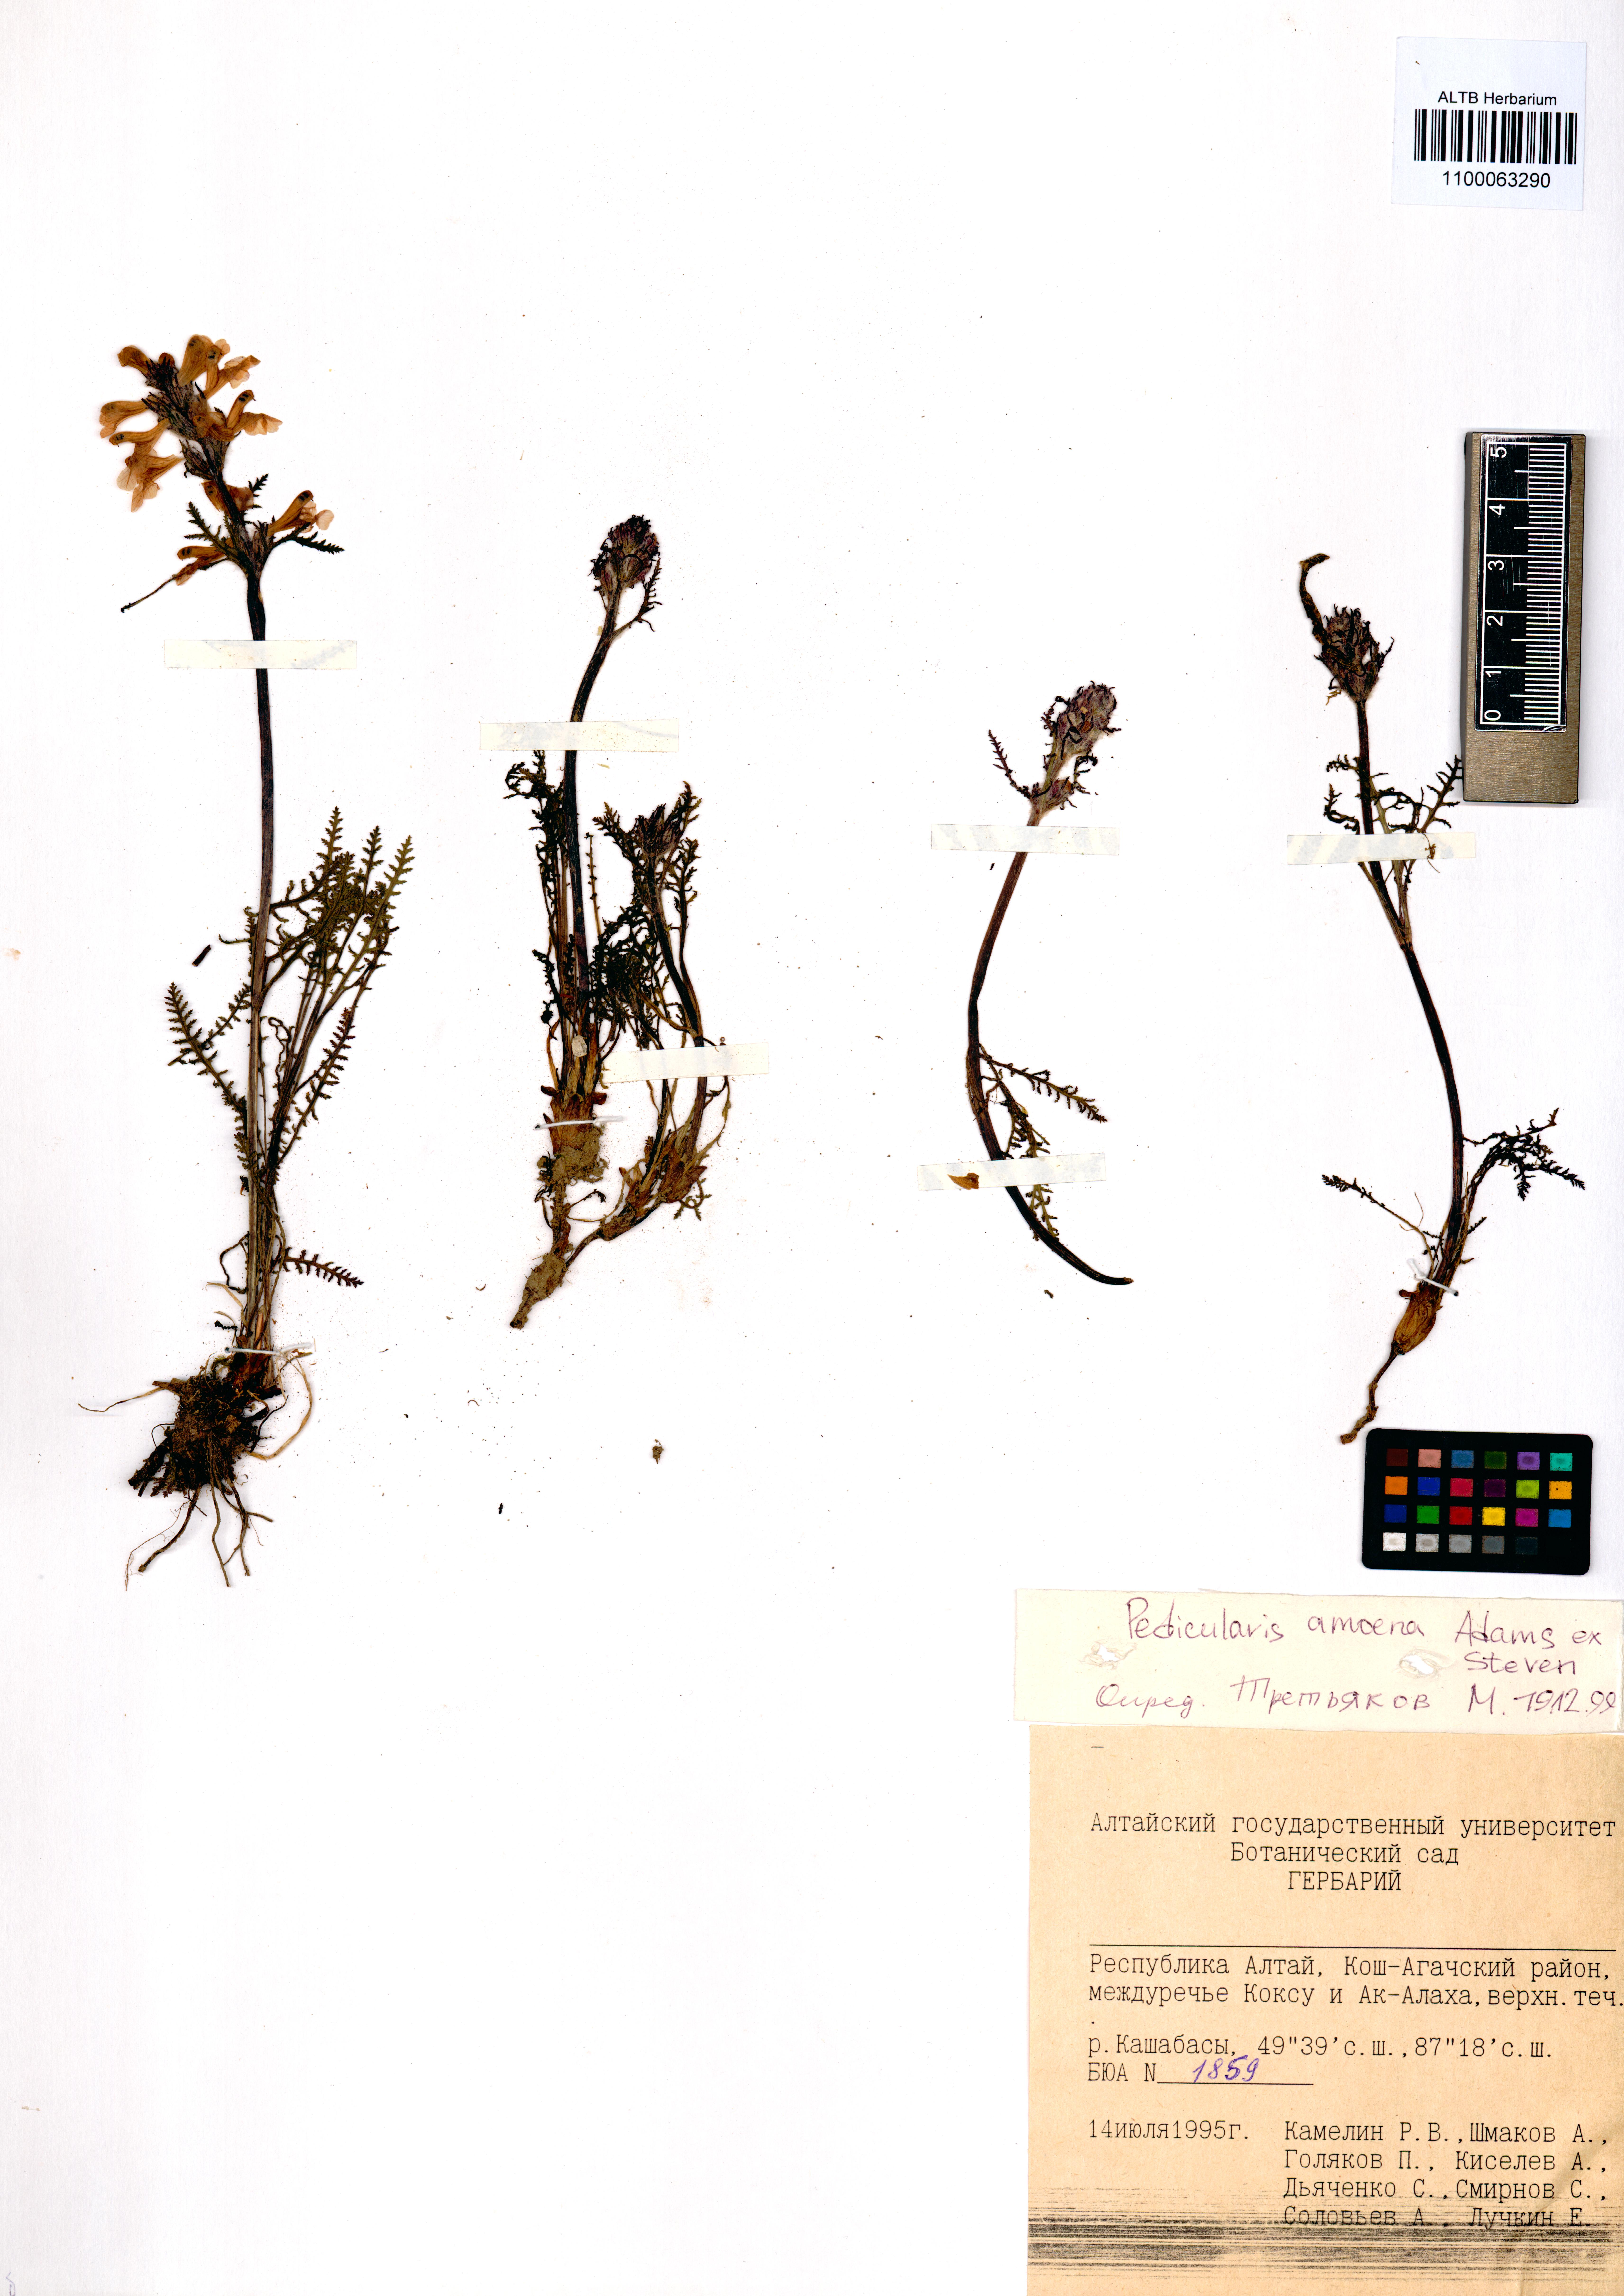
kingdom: Plantae
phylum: Tracheophyta
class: Magnoliopsida
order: Lamiales
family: Orobanchaceae
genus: Pedicularis
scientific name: Pedicularis amoena
